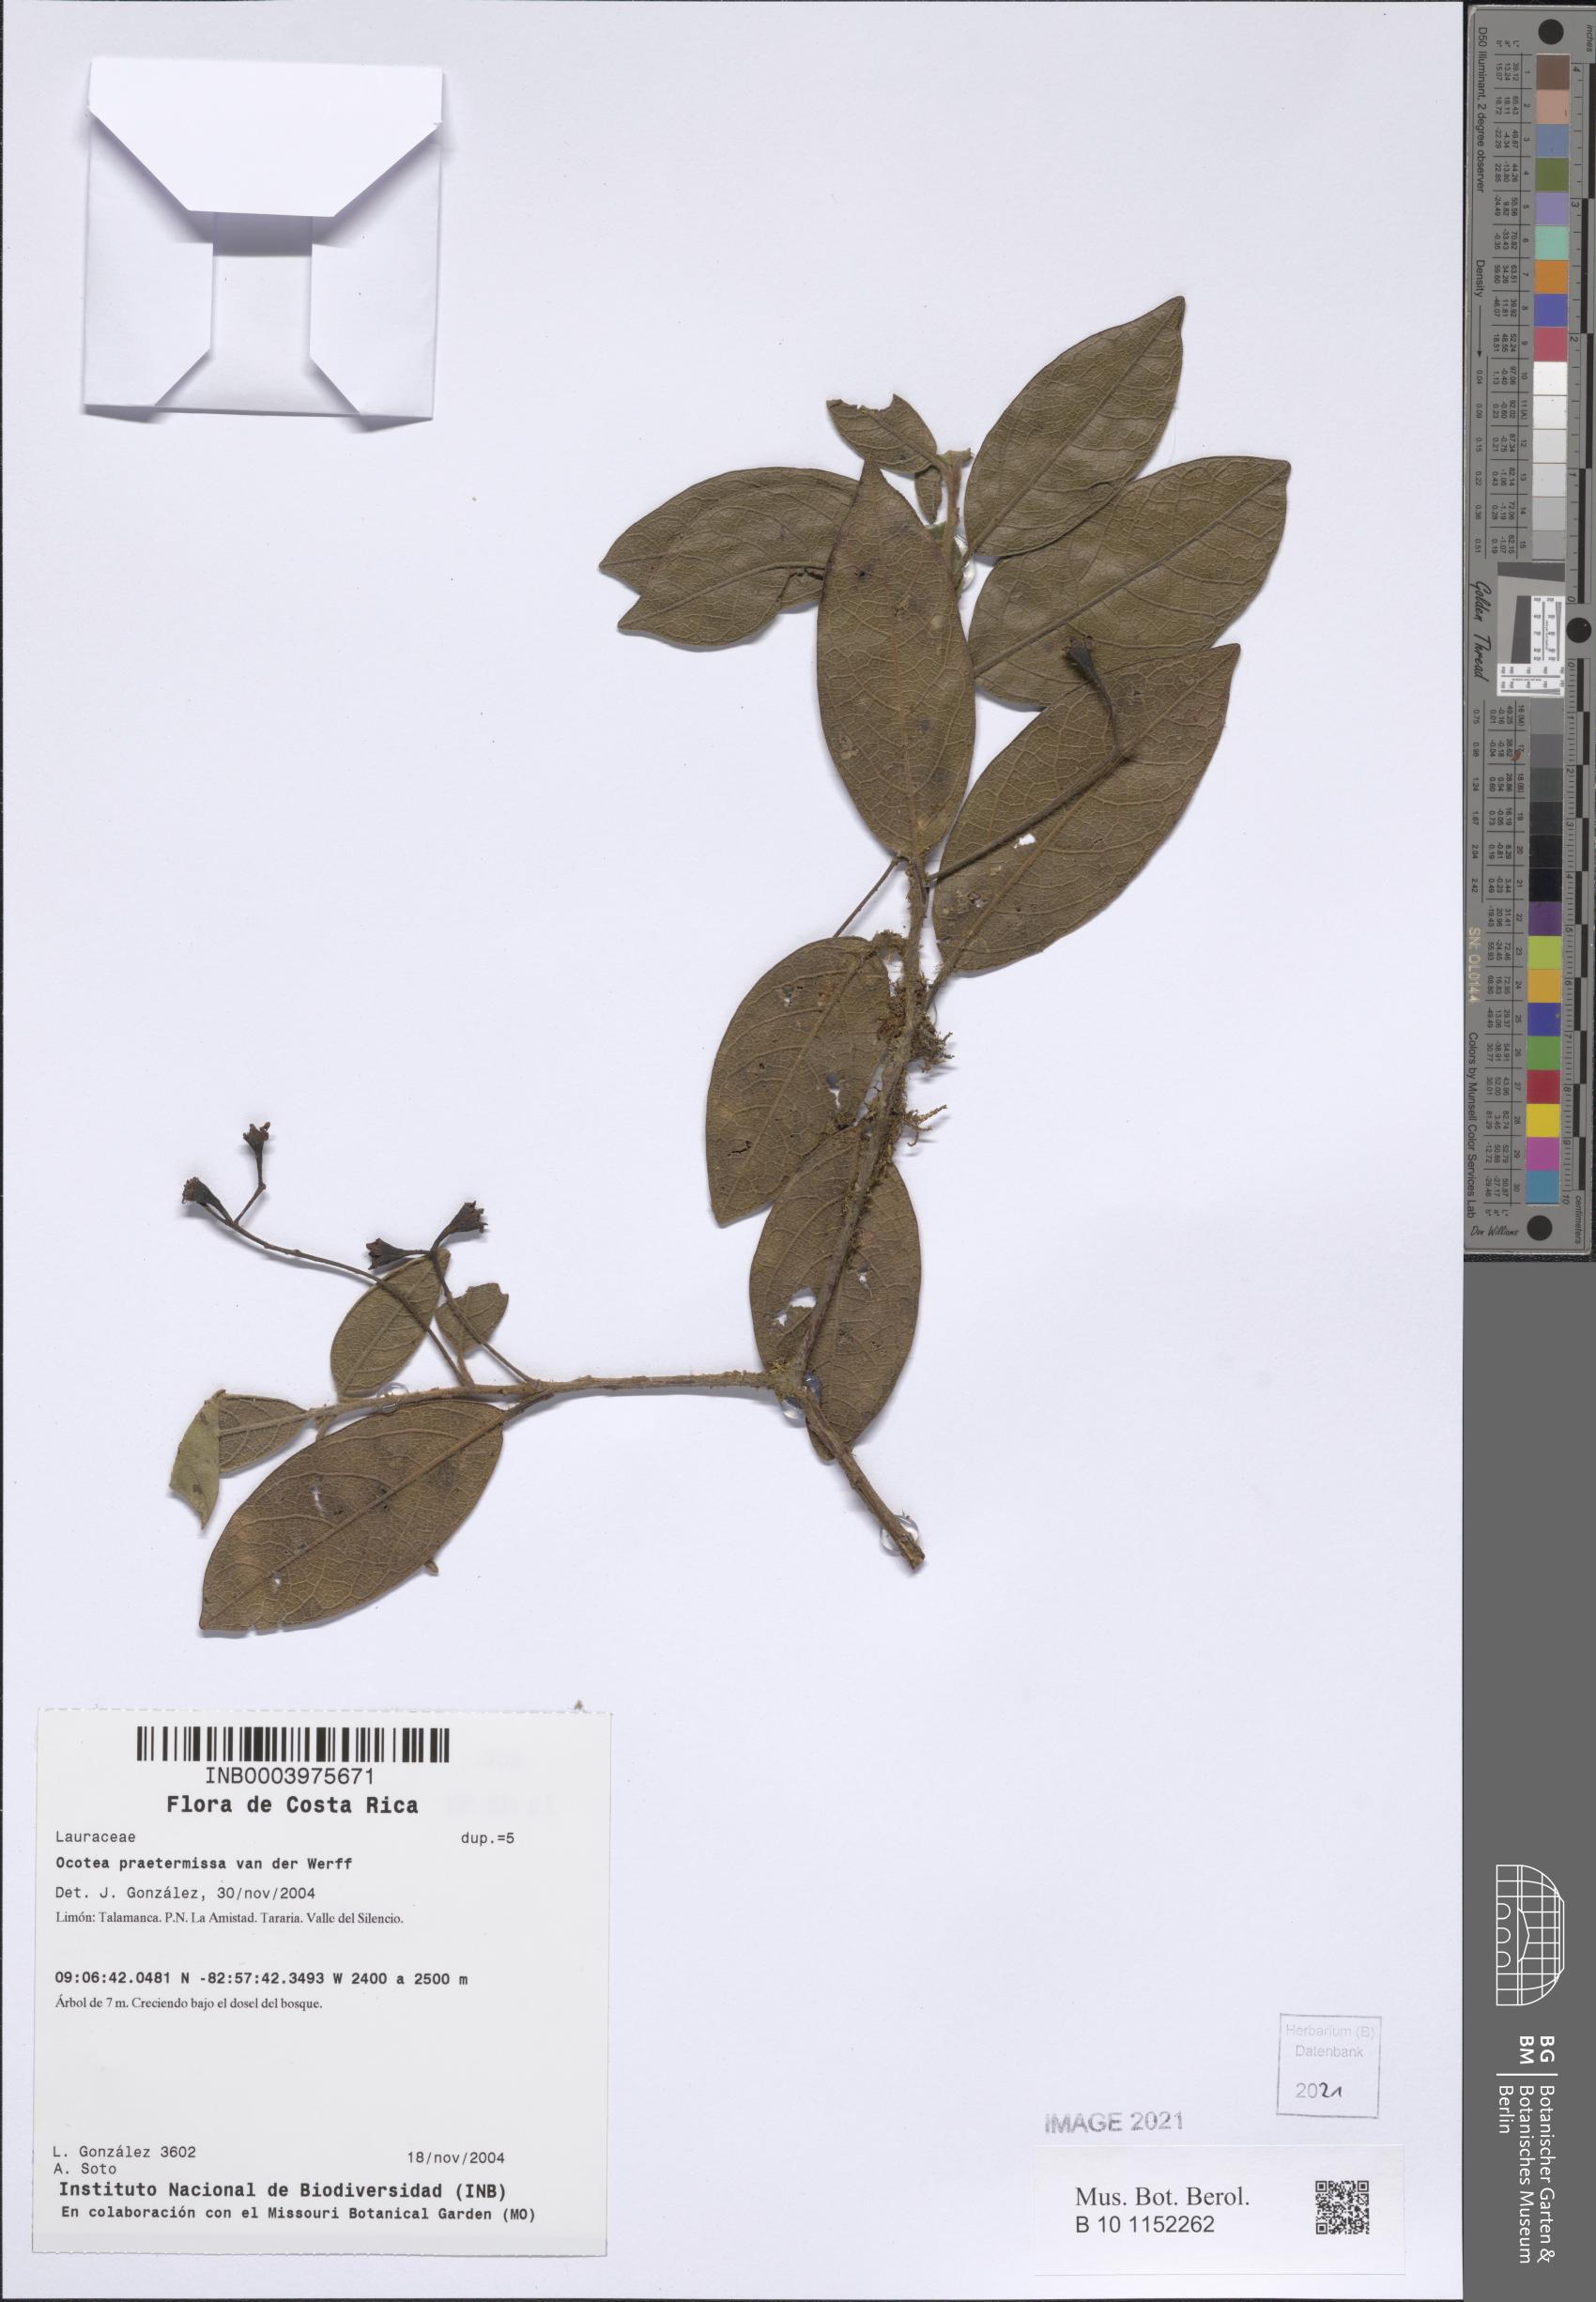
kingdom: Plantae
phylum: Tracheophyta
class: Magnoliopsida
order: Laurales
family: Lauraceae
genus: Ocotea
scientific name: Ocotea
